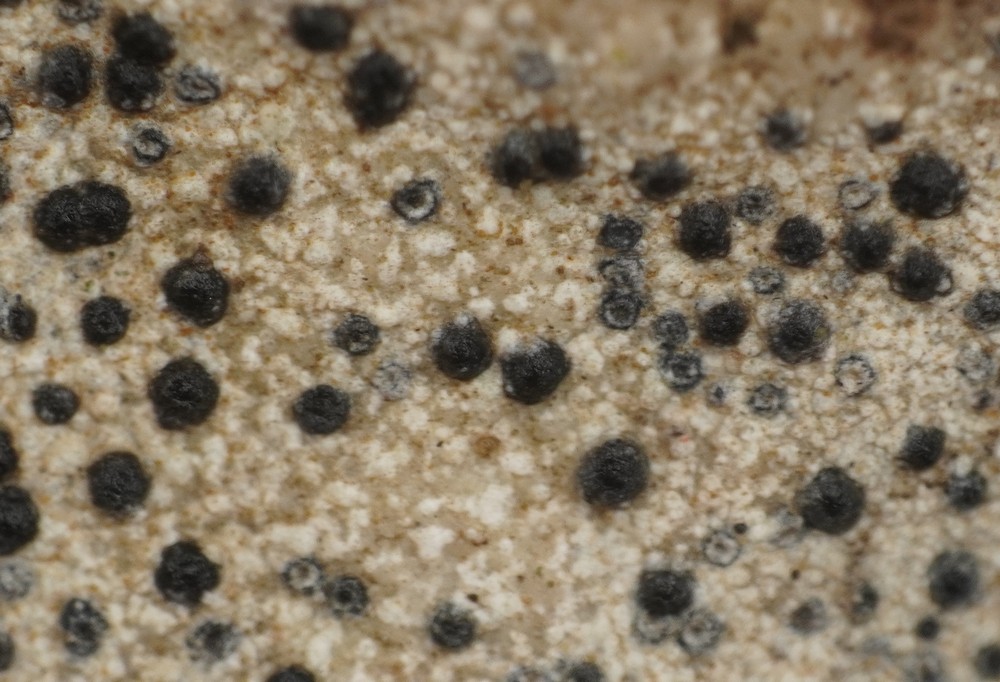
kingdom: Fungi
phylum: Ascomycota
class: Eurotiomycetes
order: Verrucariales
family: Verrucariaceae
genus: Verrucaria
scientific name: Verrucaria
